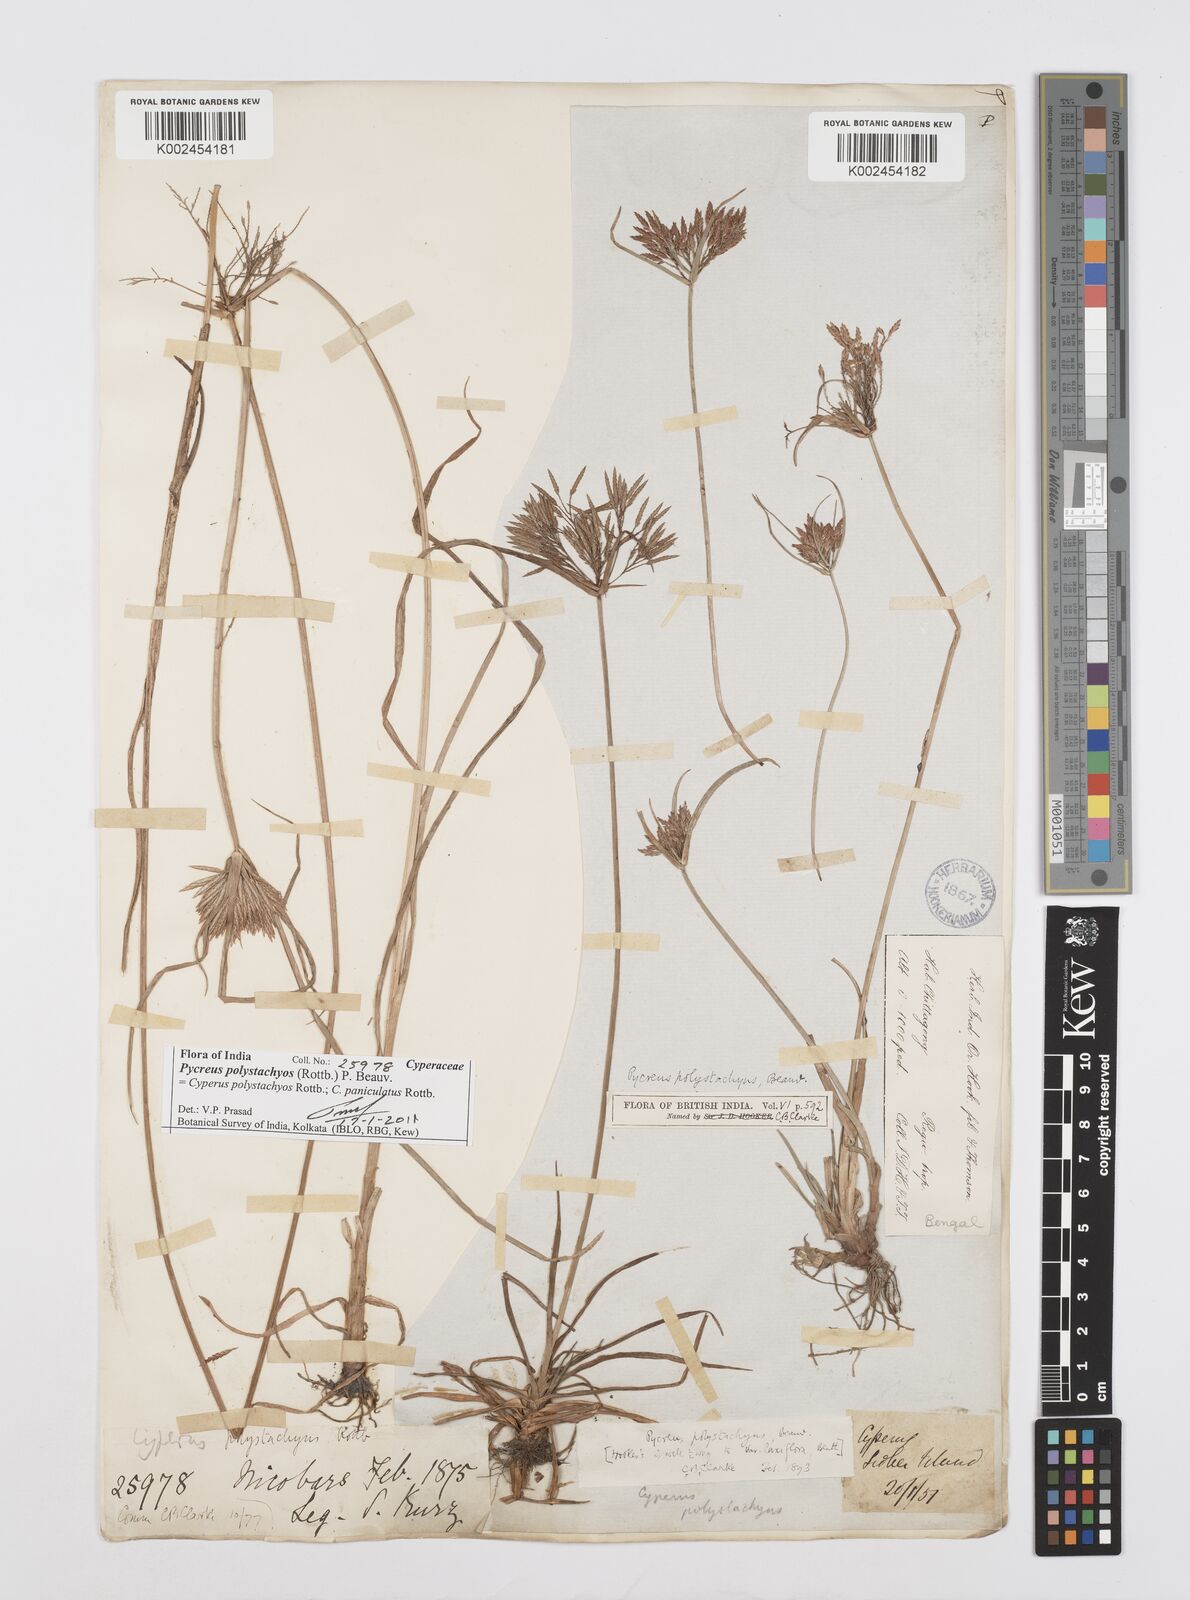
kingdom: Plantae
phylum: Tracheophyta
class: Liliopsida
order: Poales
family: Cyperaceae
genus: Cyperus
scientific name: Cyperus polystachyos
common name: Bunchy flat sedge
